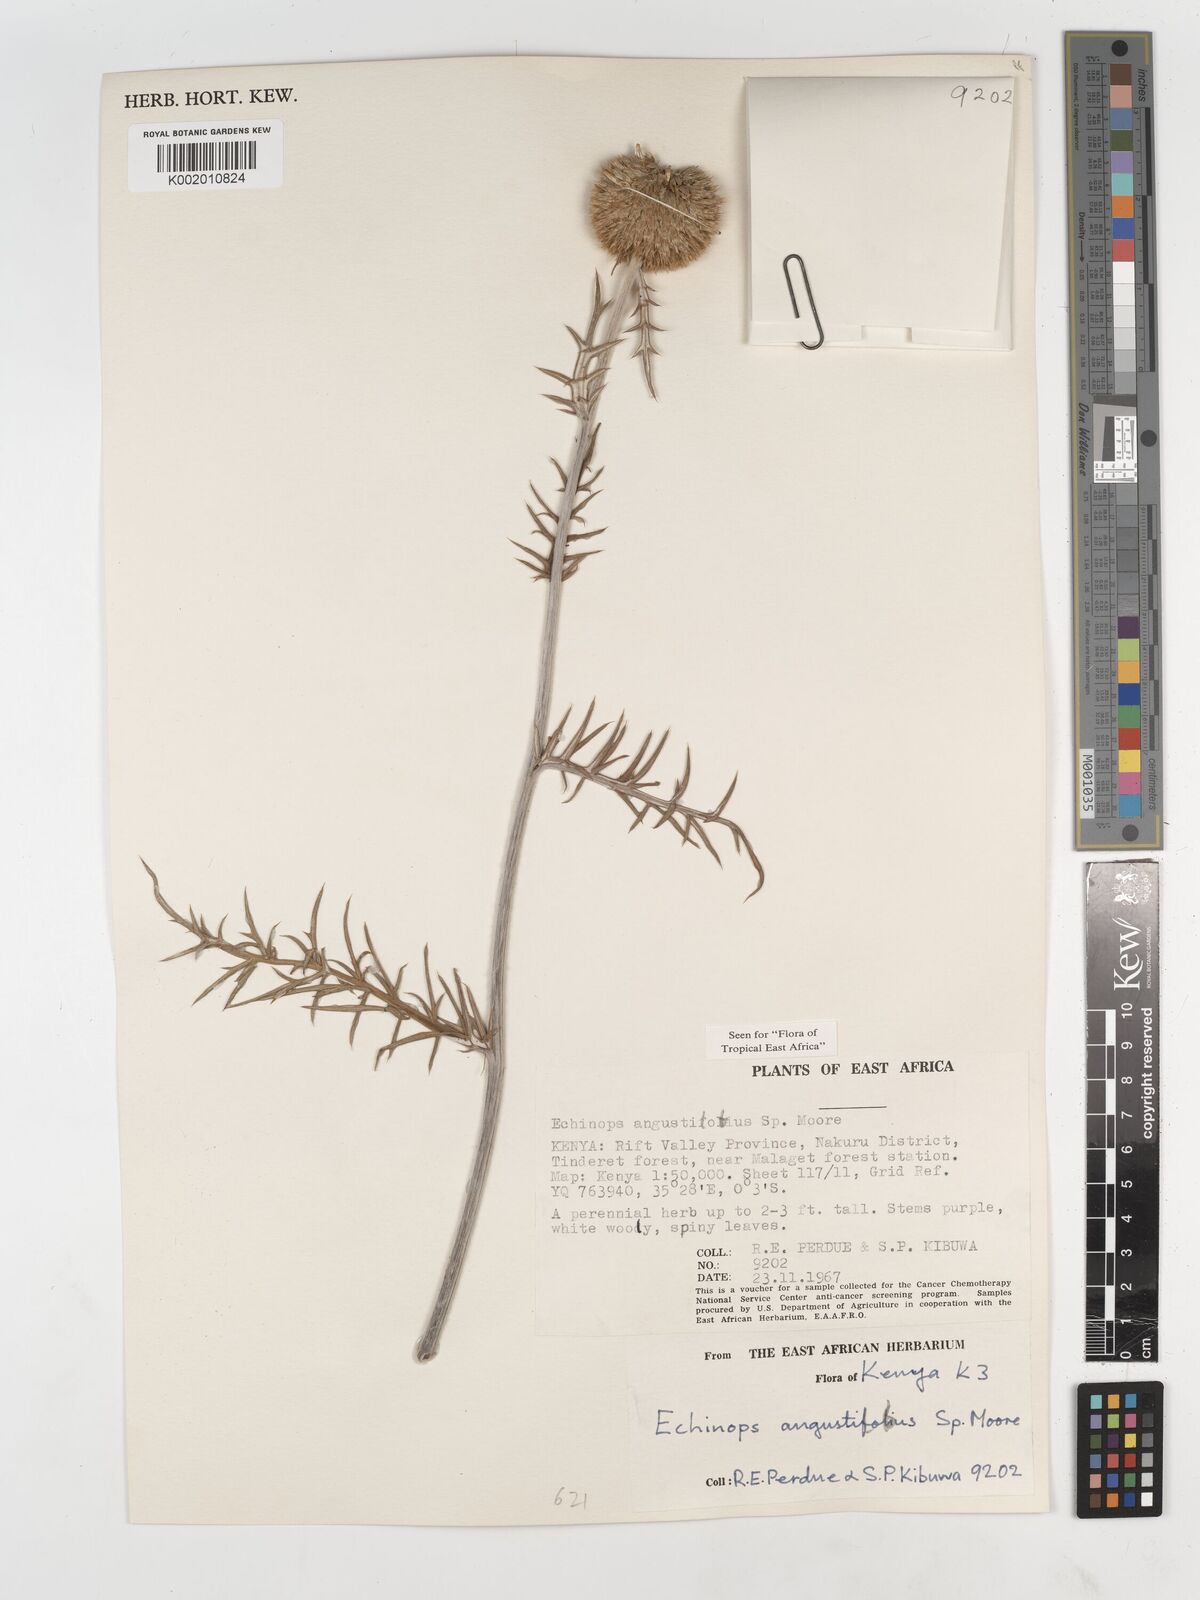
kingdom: Plantae
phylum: Tracheophyta
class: Magnoliopsida
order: Asterales
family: Asteraceae
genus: Echinops
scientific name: Echinops angustilobus
